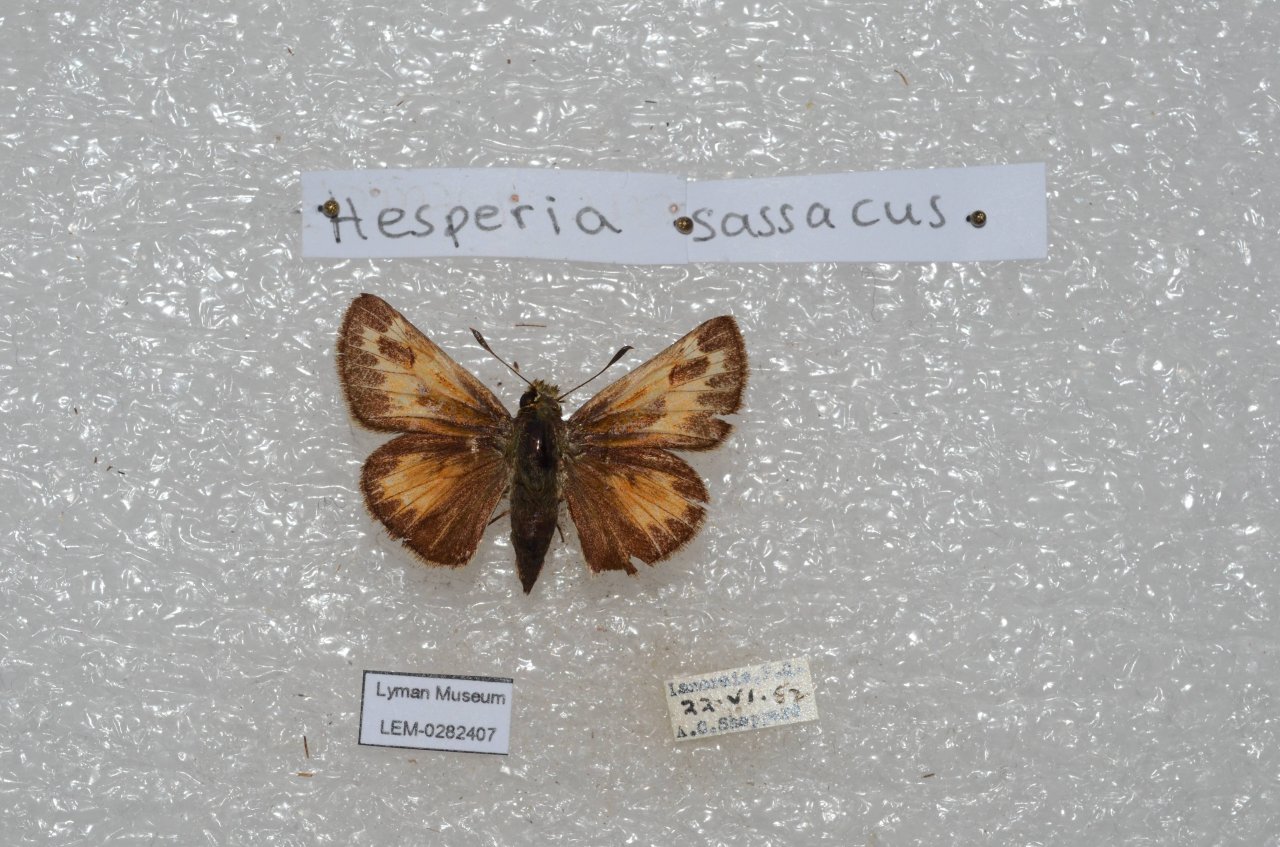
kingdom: Animalia
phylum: Arthropoda
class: Insecta
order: Lepidoptera
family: Hesperiidae
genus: Hesperia
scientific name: Hesperia sassacus
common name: Sassacus Skipper
